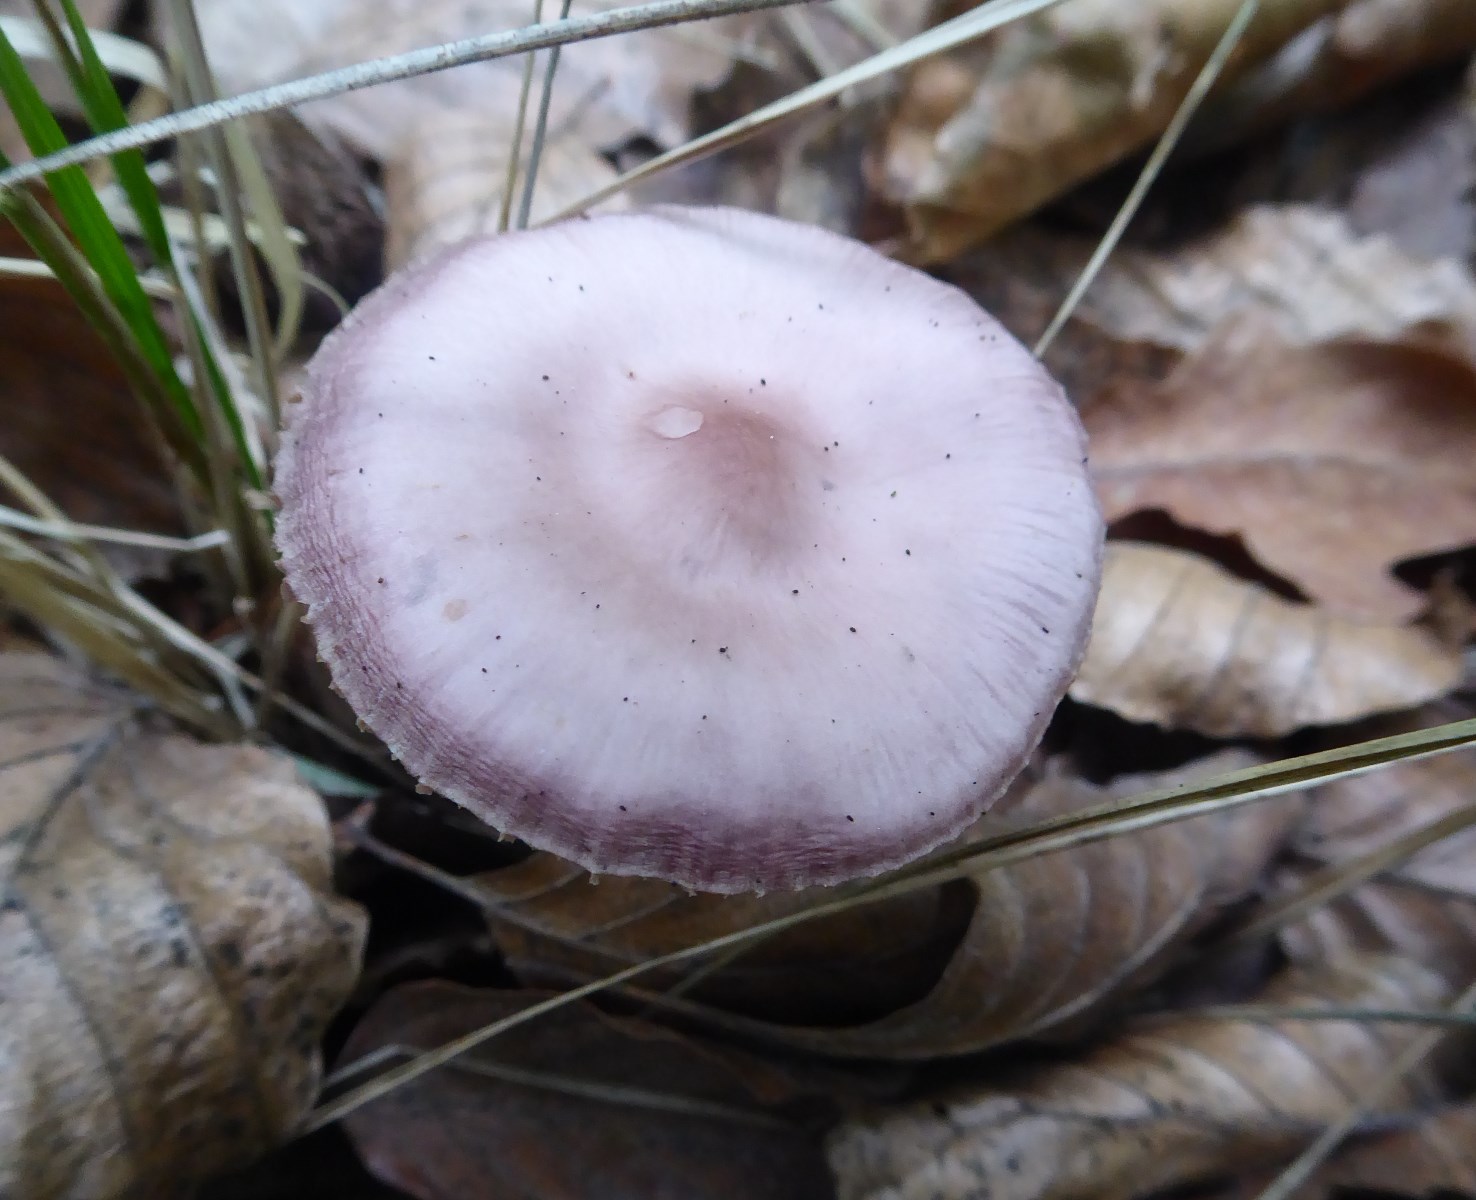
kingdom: Fungi
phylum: Basidiomycota
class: Agaricomycetes
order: Agaricales
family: Mycenaceae
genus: Mycena
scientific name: Mycena rosea
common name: rosa huesvamp
